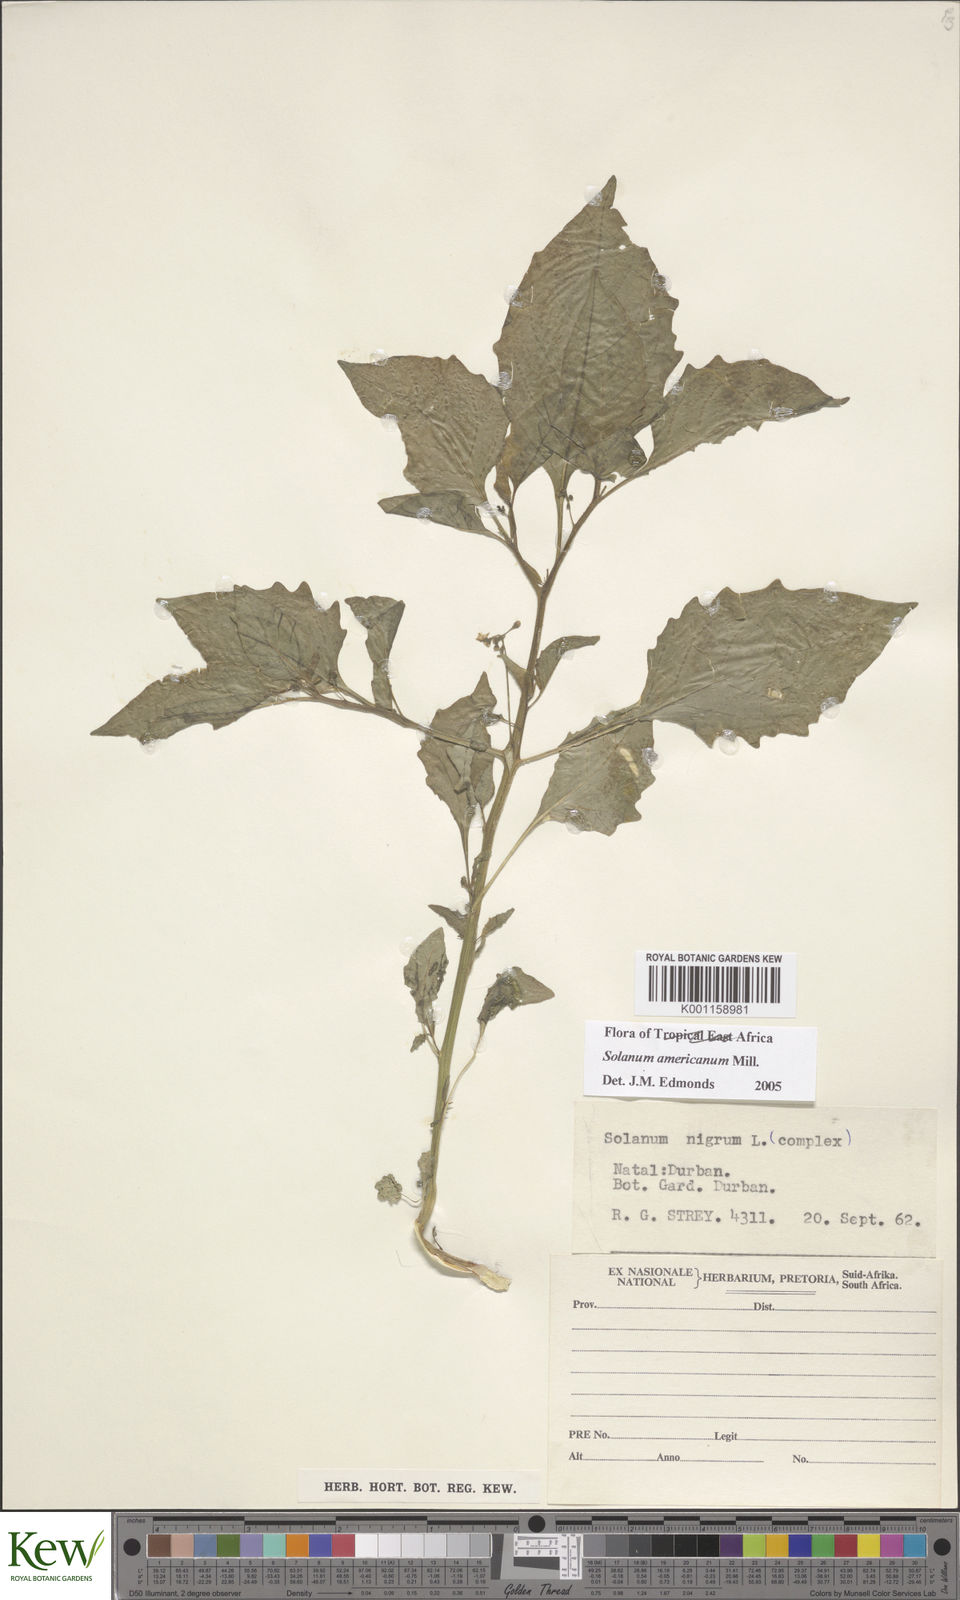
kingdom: Plantae
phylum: Tracheophyta
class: Magnoliopsida
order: Solanales
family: Solanaceae
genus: Solanum
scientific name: Solanum americanum
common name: American black nightshade
